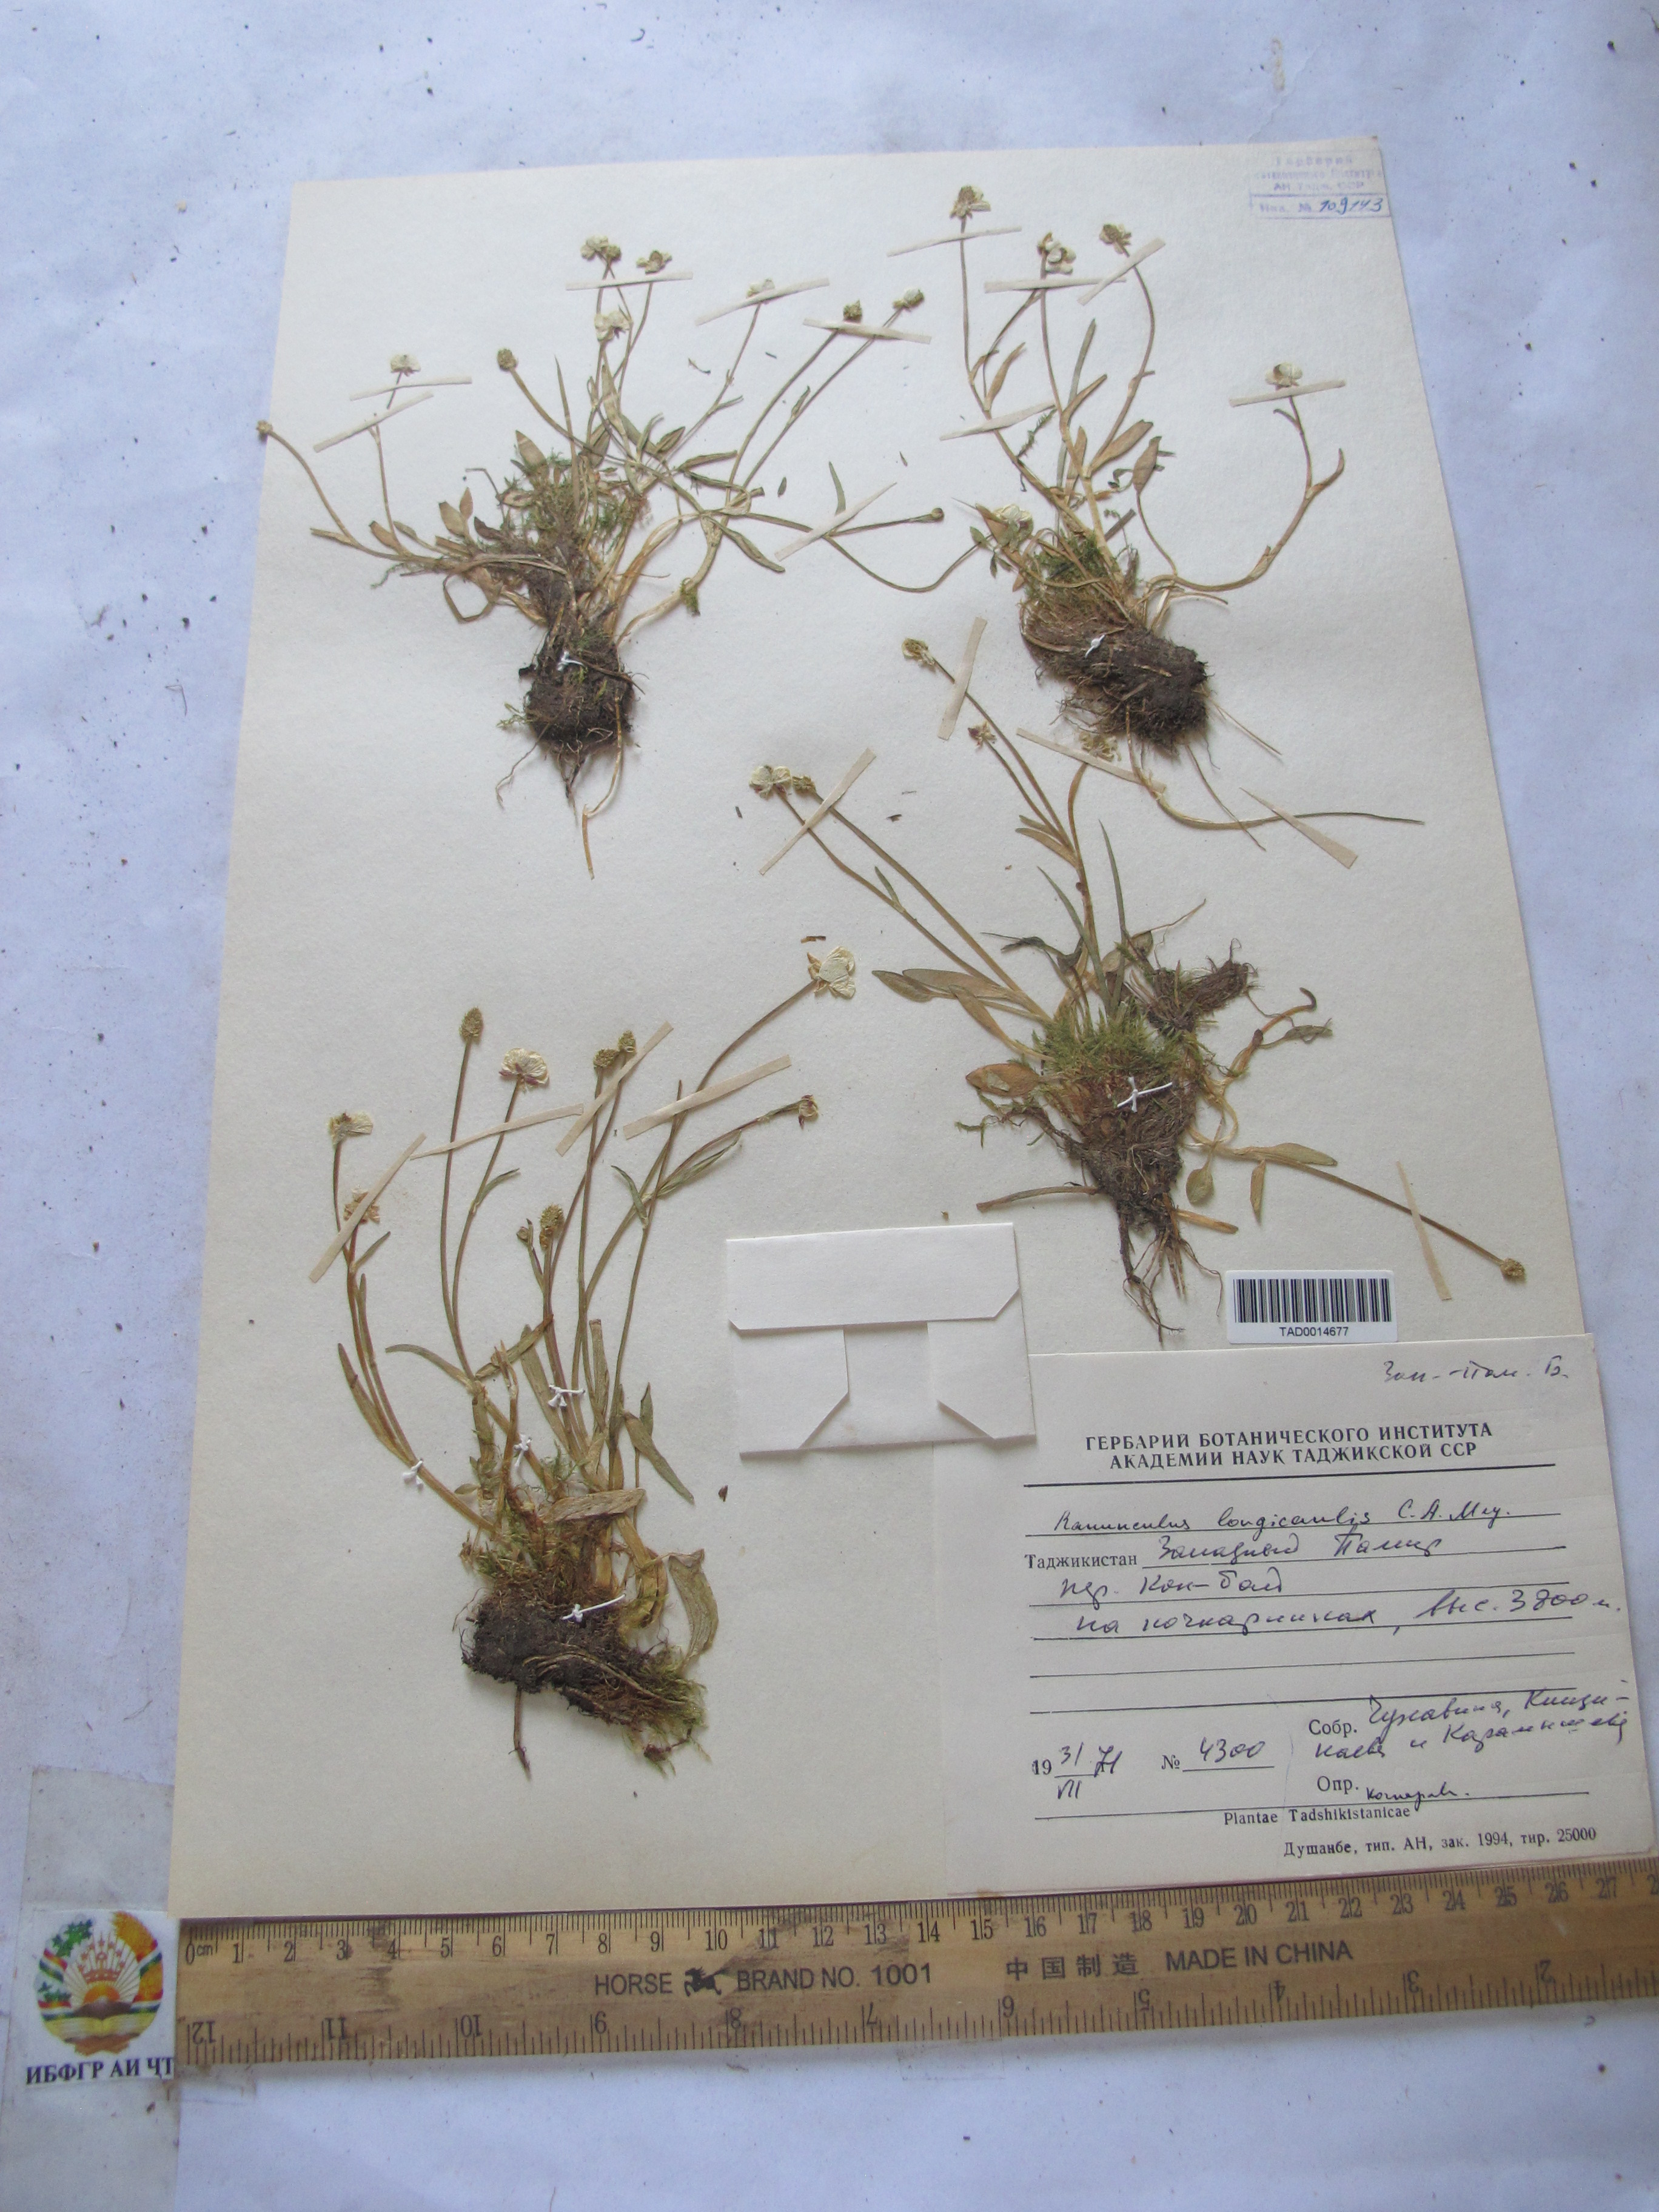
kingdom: Plantae
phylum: Tracheophyta
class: Magnoliopsida
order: Ranunculales
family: Ranunculaceae
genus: Ranunculus
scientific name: Ranunculus longicaulis
